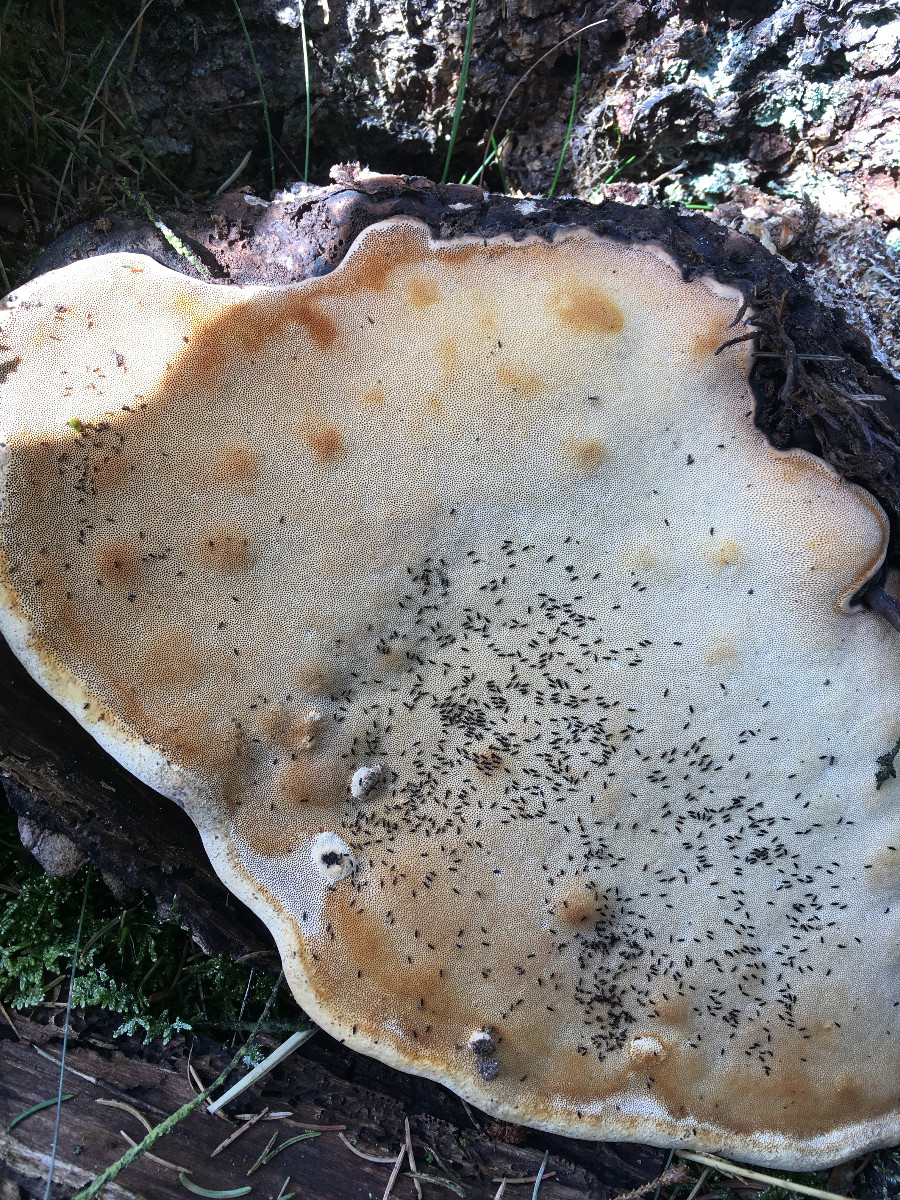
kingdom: Fungi
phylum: Basidiomycota
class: Agaricomycetes
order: Polyporales
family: Fomitopsidaceae
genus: Fomitopsis
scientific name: Fomitopsis pinicola
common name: randbæltet hovporesvamp
